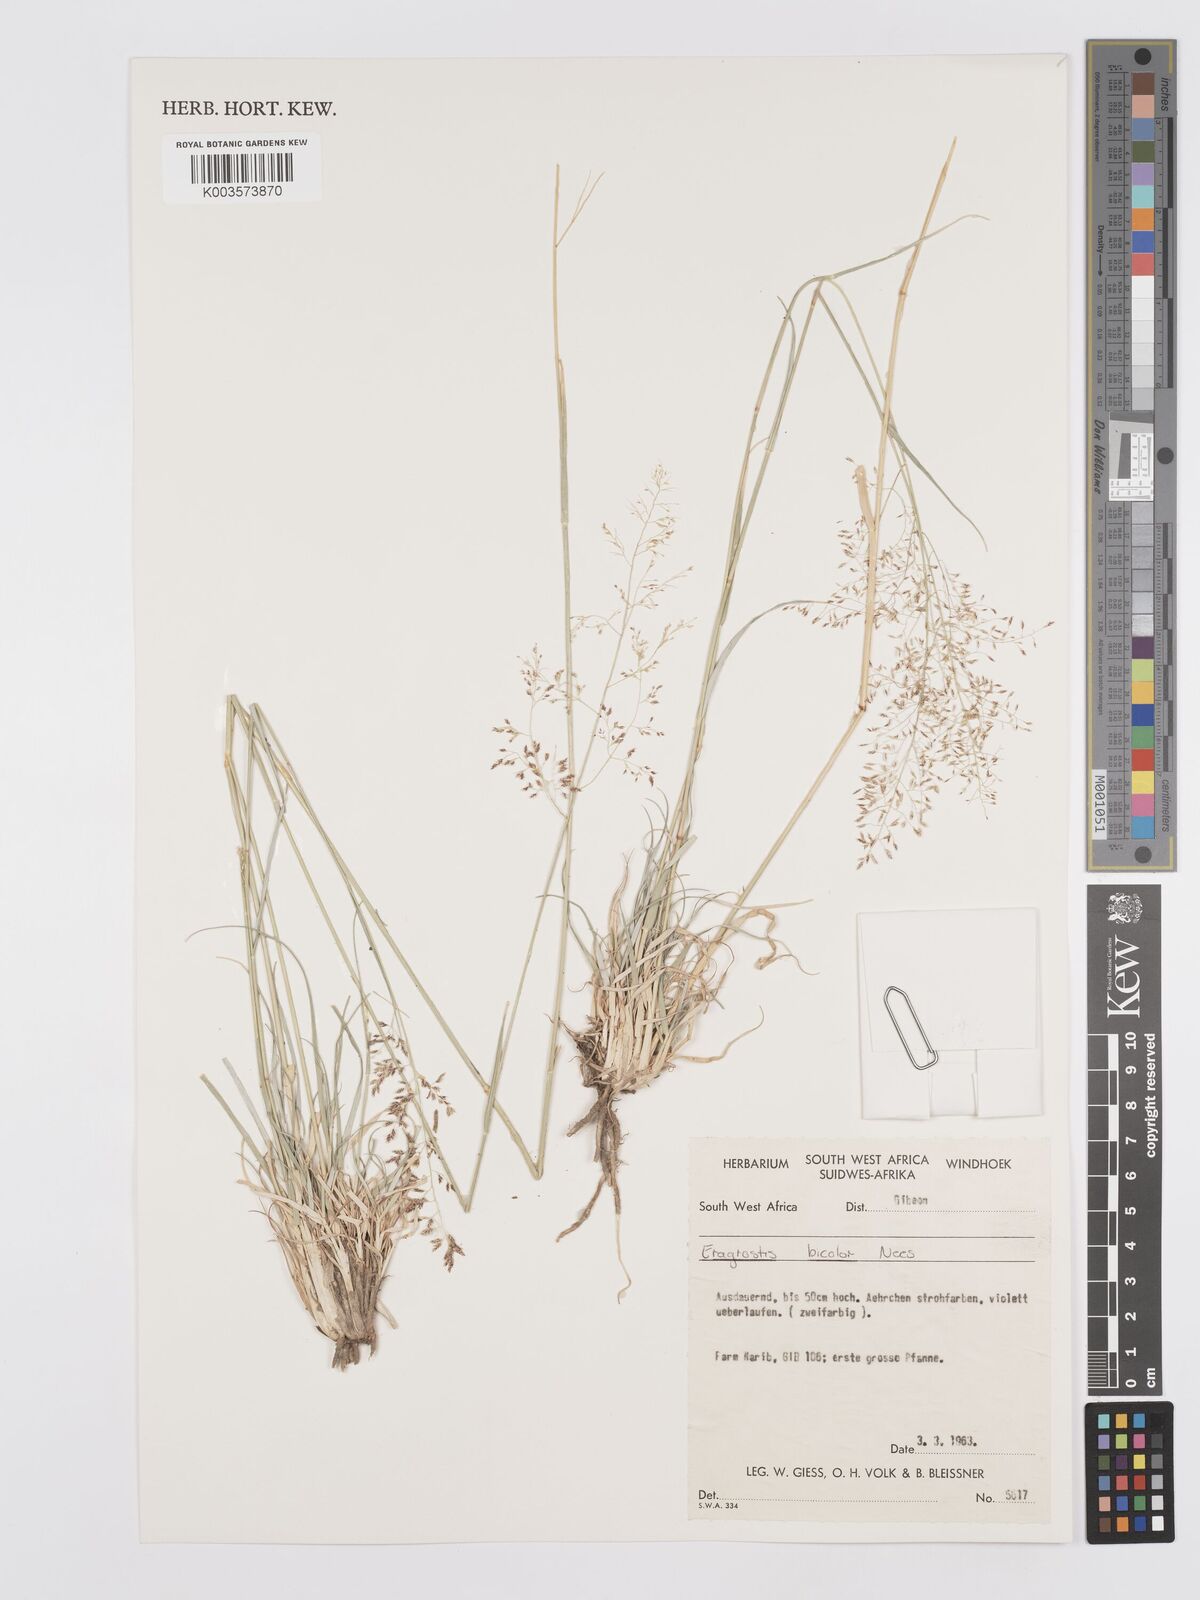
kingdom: Plantae
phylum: Tracheophyta
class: Liliopsida
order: Poales
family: Poaceae
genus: Eragrostis
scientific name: Eragrostis
